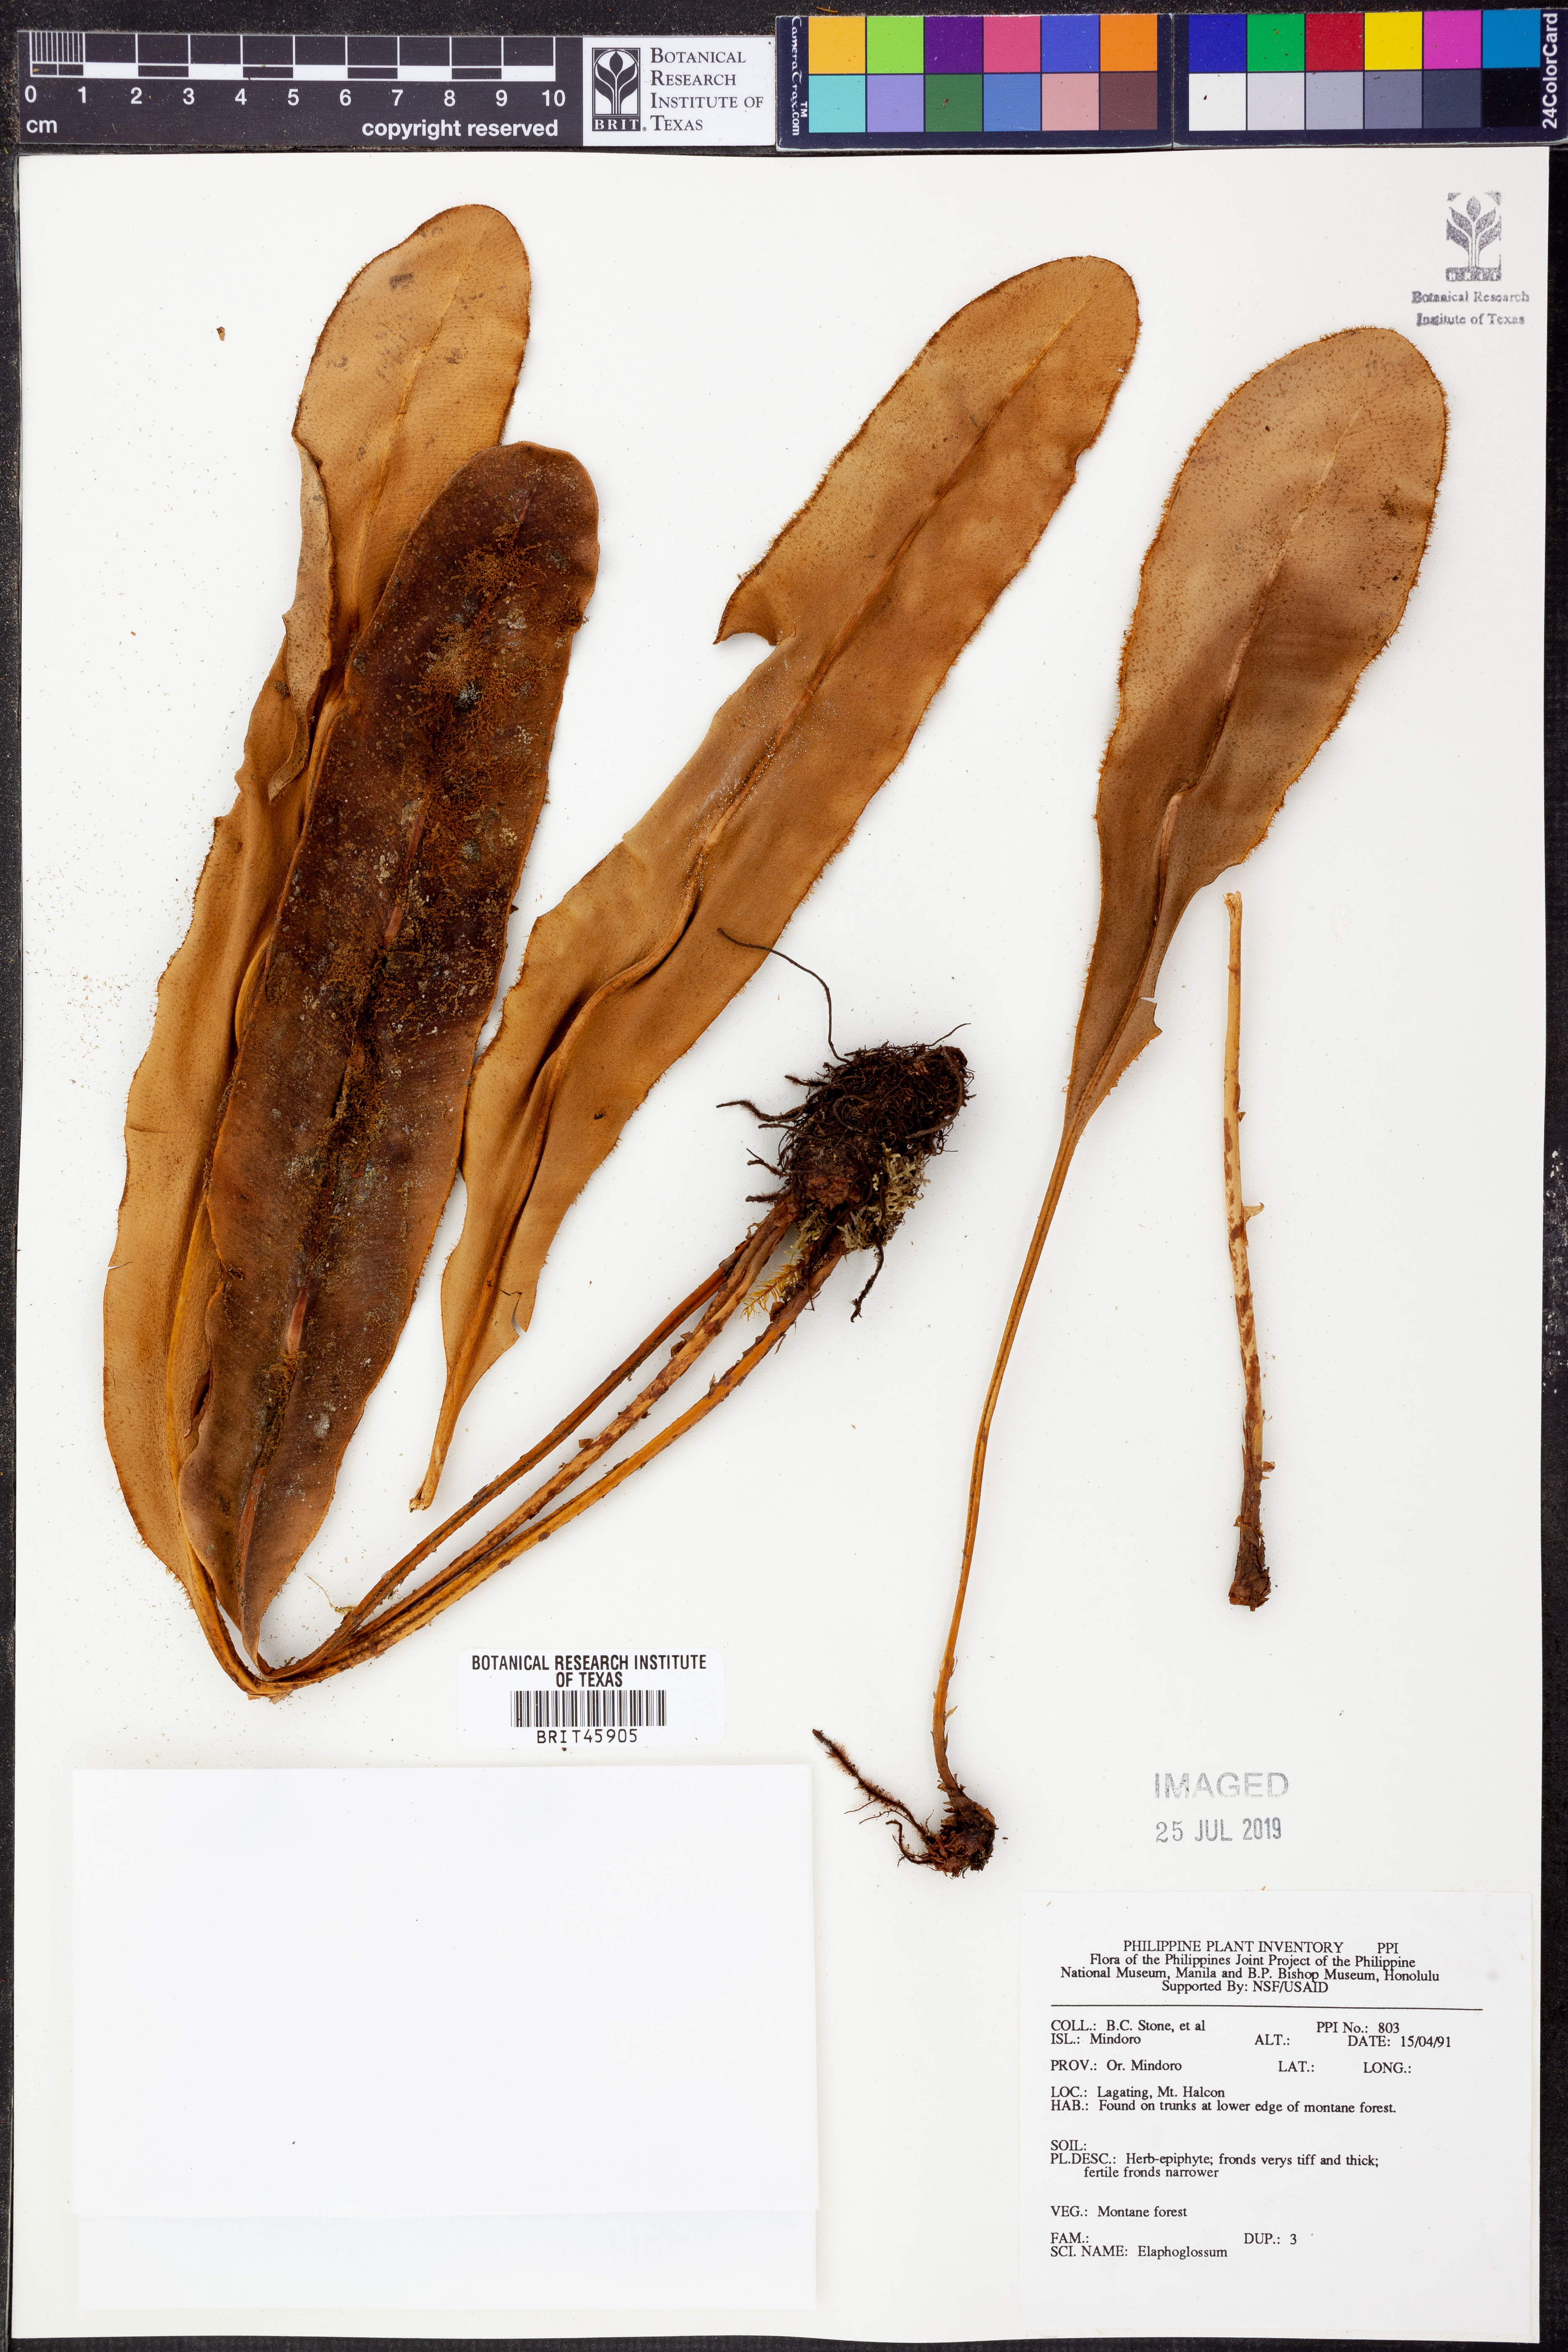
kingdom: Plantae
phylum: Tracheophyta
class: Polypodiopsida
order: Polypodiales
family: Dryopteridaceae
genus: Elaphoglossum
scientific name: Elaphoglossum
